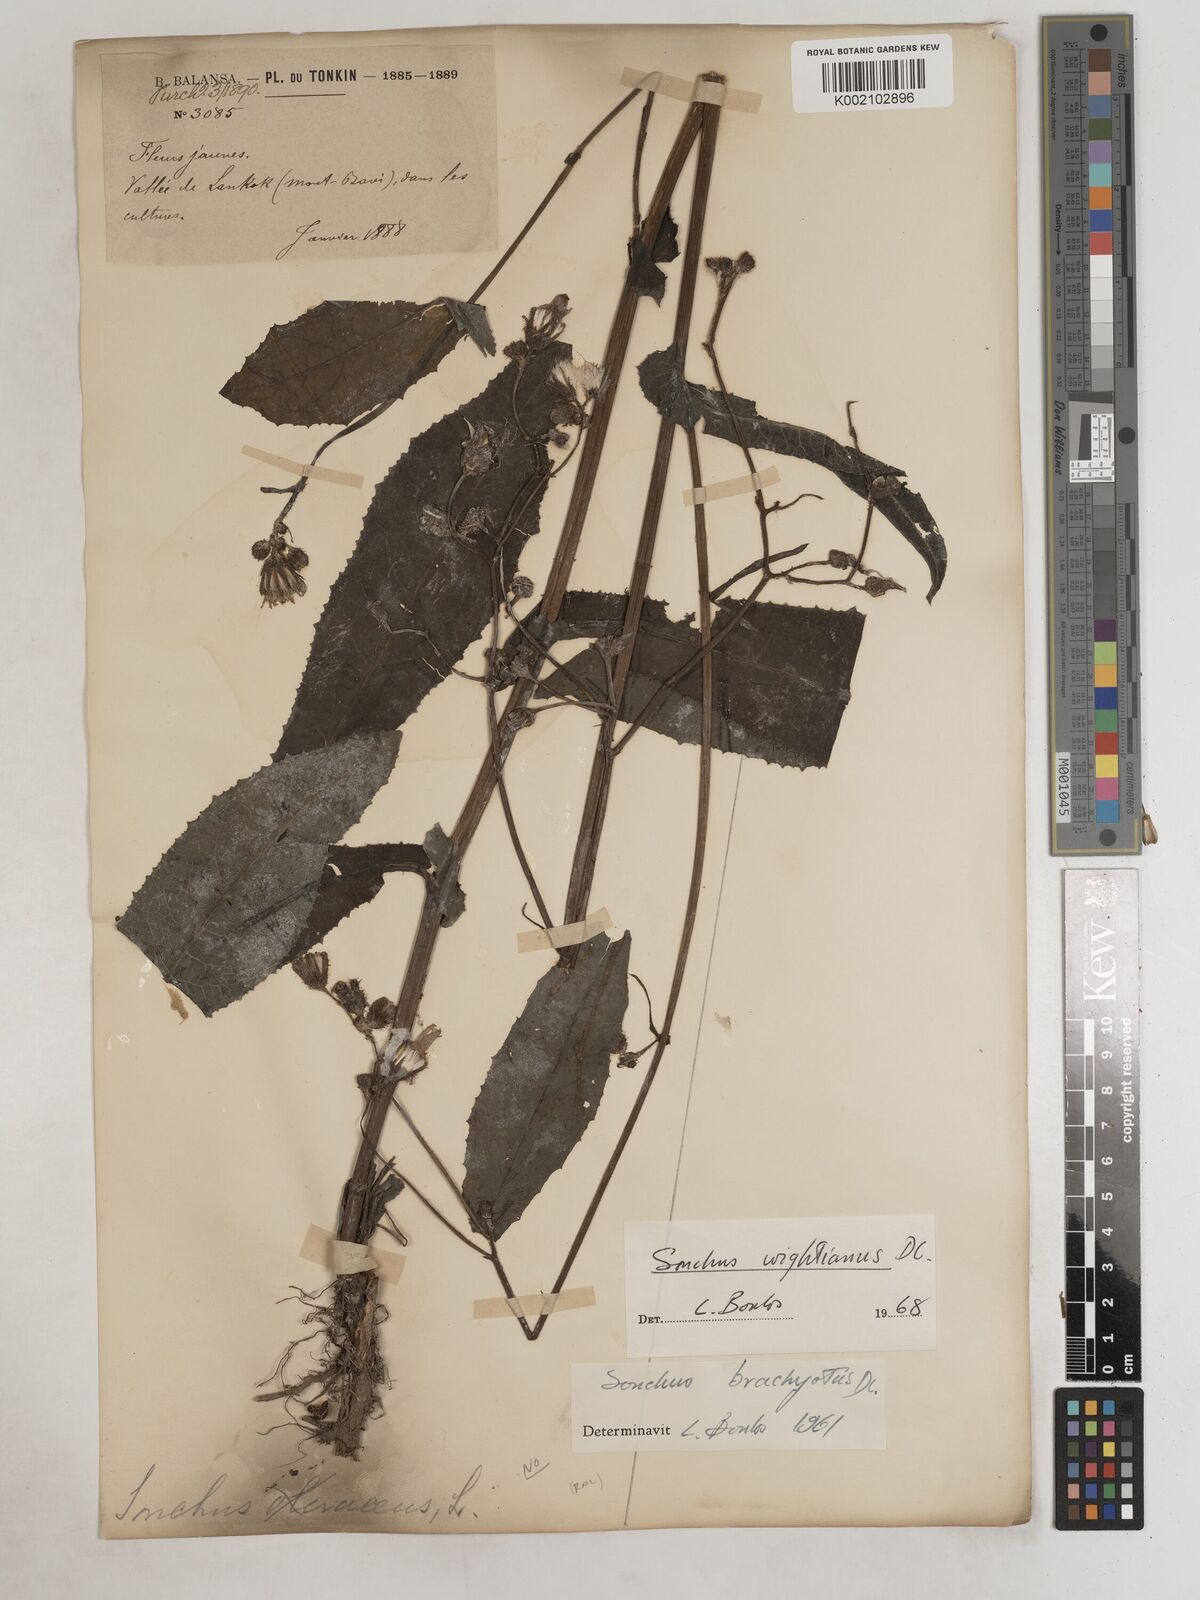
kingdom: Plantae
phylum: Tracheophyta
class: Magnoliopsida
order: Asterales
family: Asteraceae
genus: Sonchus
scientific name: Sonchus wightianus
